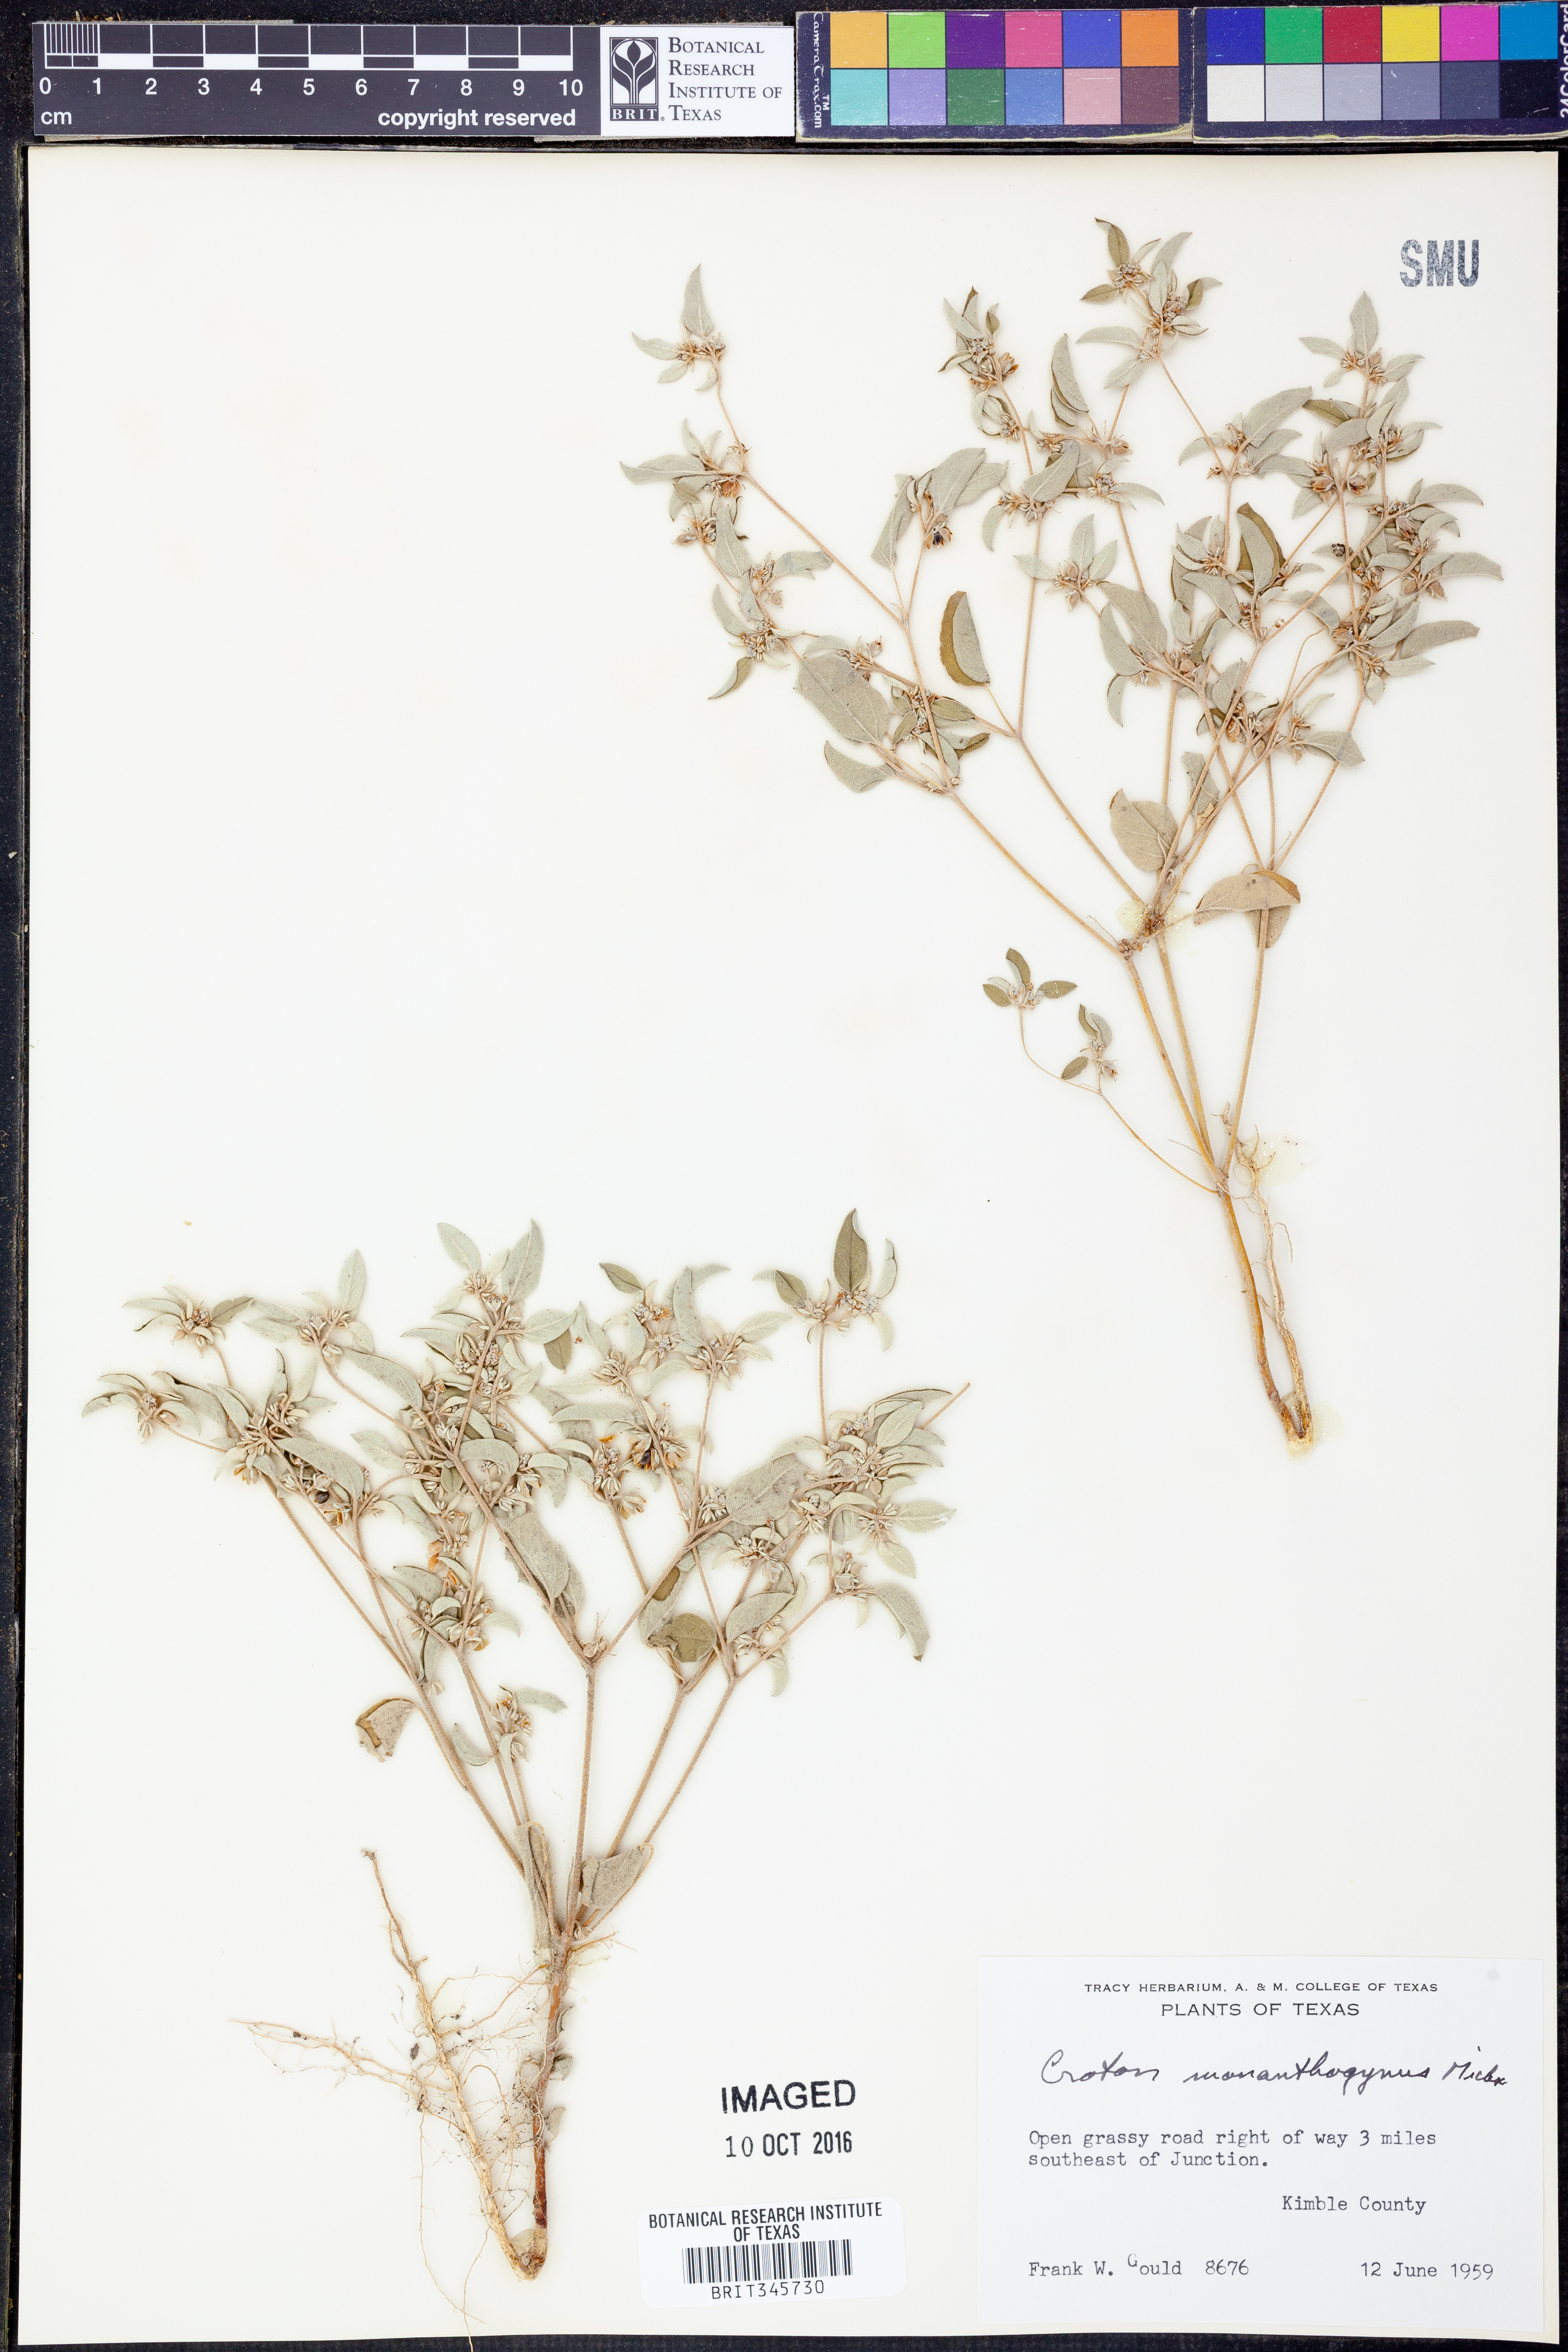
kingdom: Plantae
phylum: Tracheophyta
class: Magnoliopsida
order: Malpighiales
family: Euphorbiaceae
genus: Croton
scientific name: Croton monanthogynus
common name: One-seed croton
